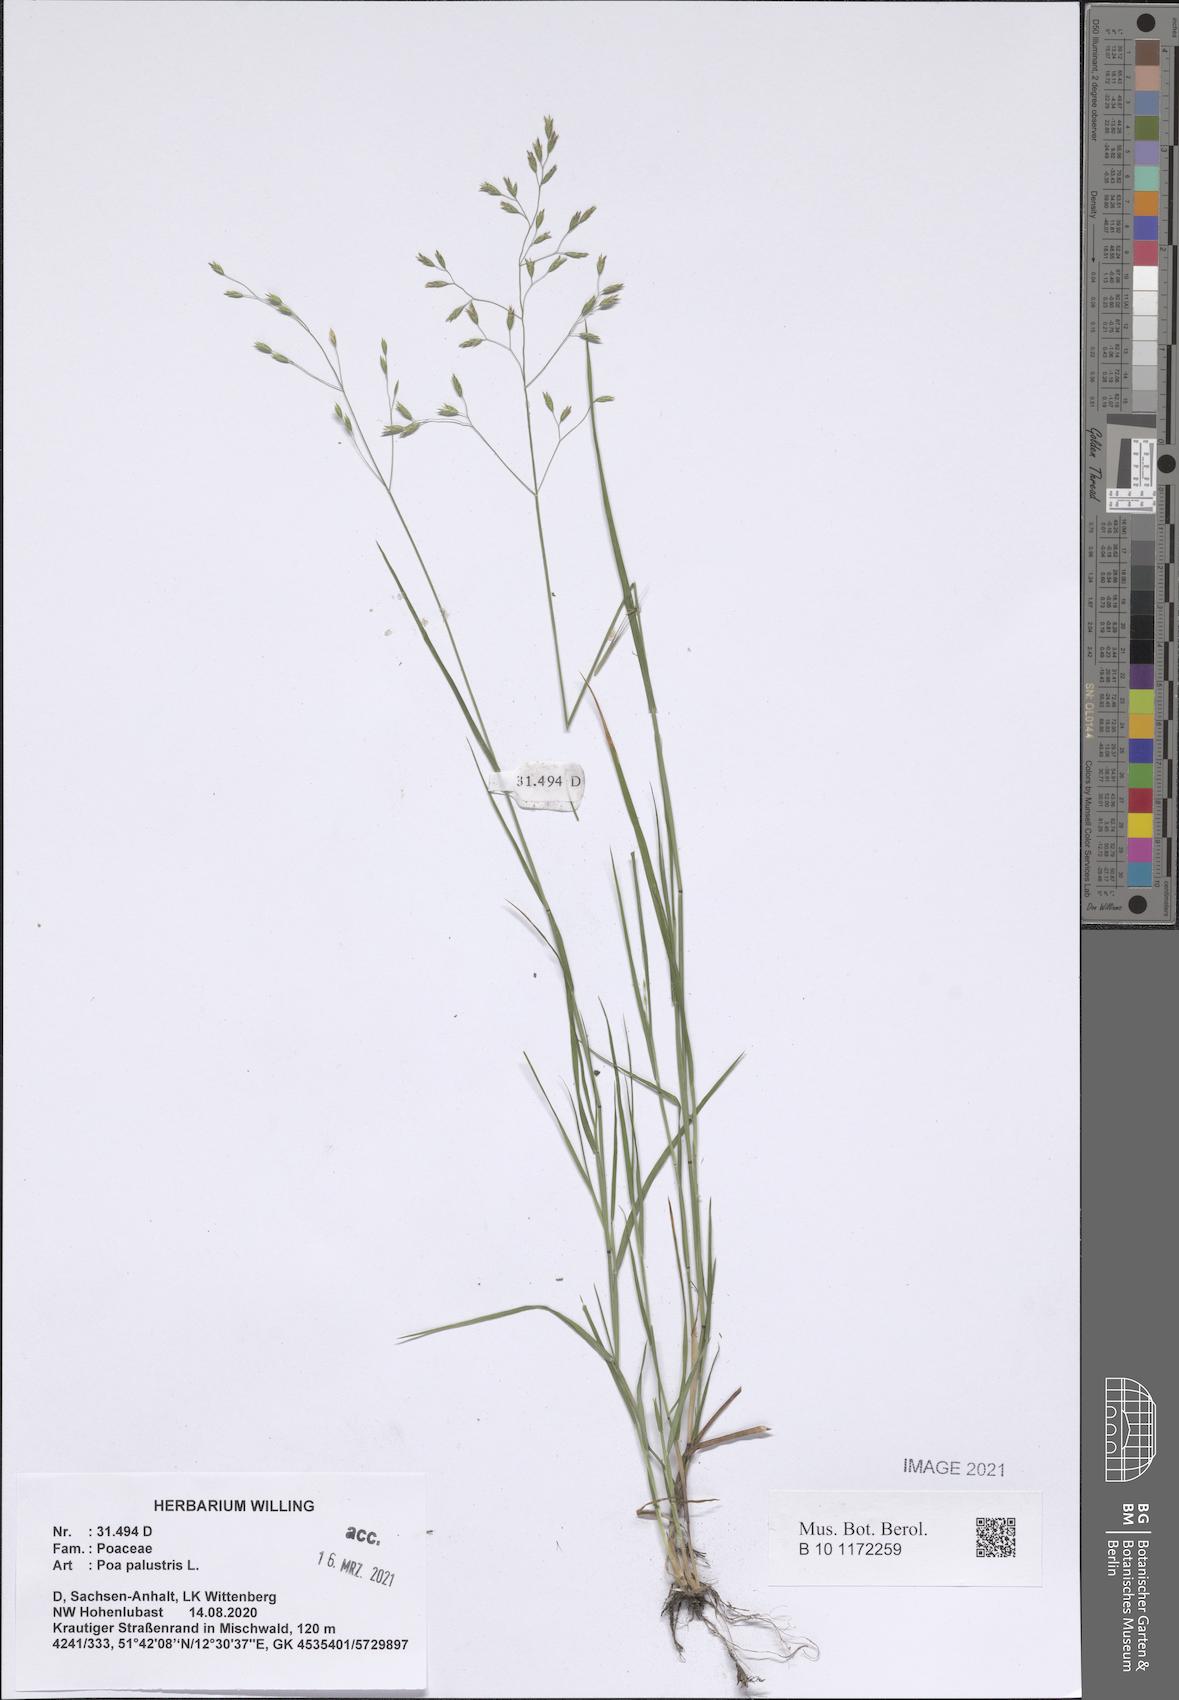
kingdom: Plantae
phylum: Tracheophyta
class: Liliopsida
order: Poales
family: Poaceae
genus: Poa
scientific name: Poa palustris
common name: Swamp meadow-grass
